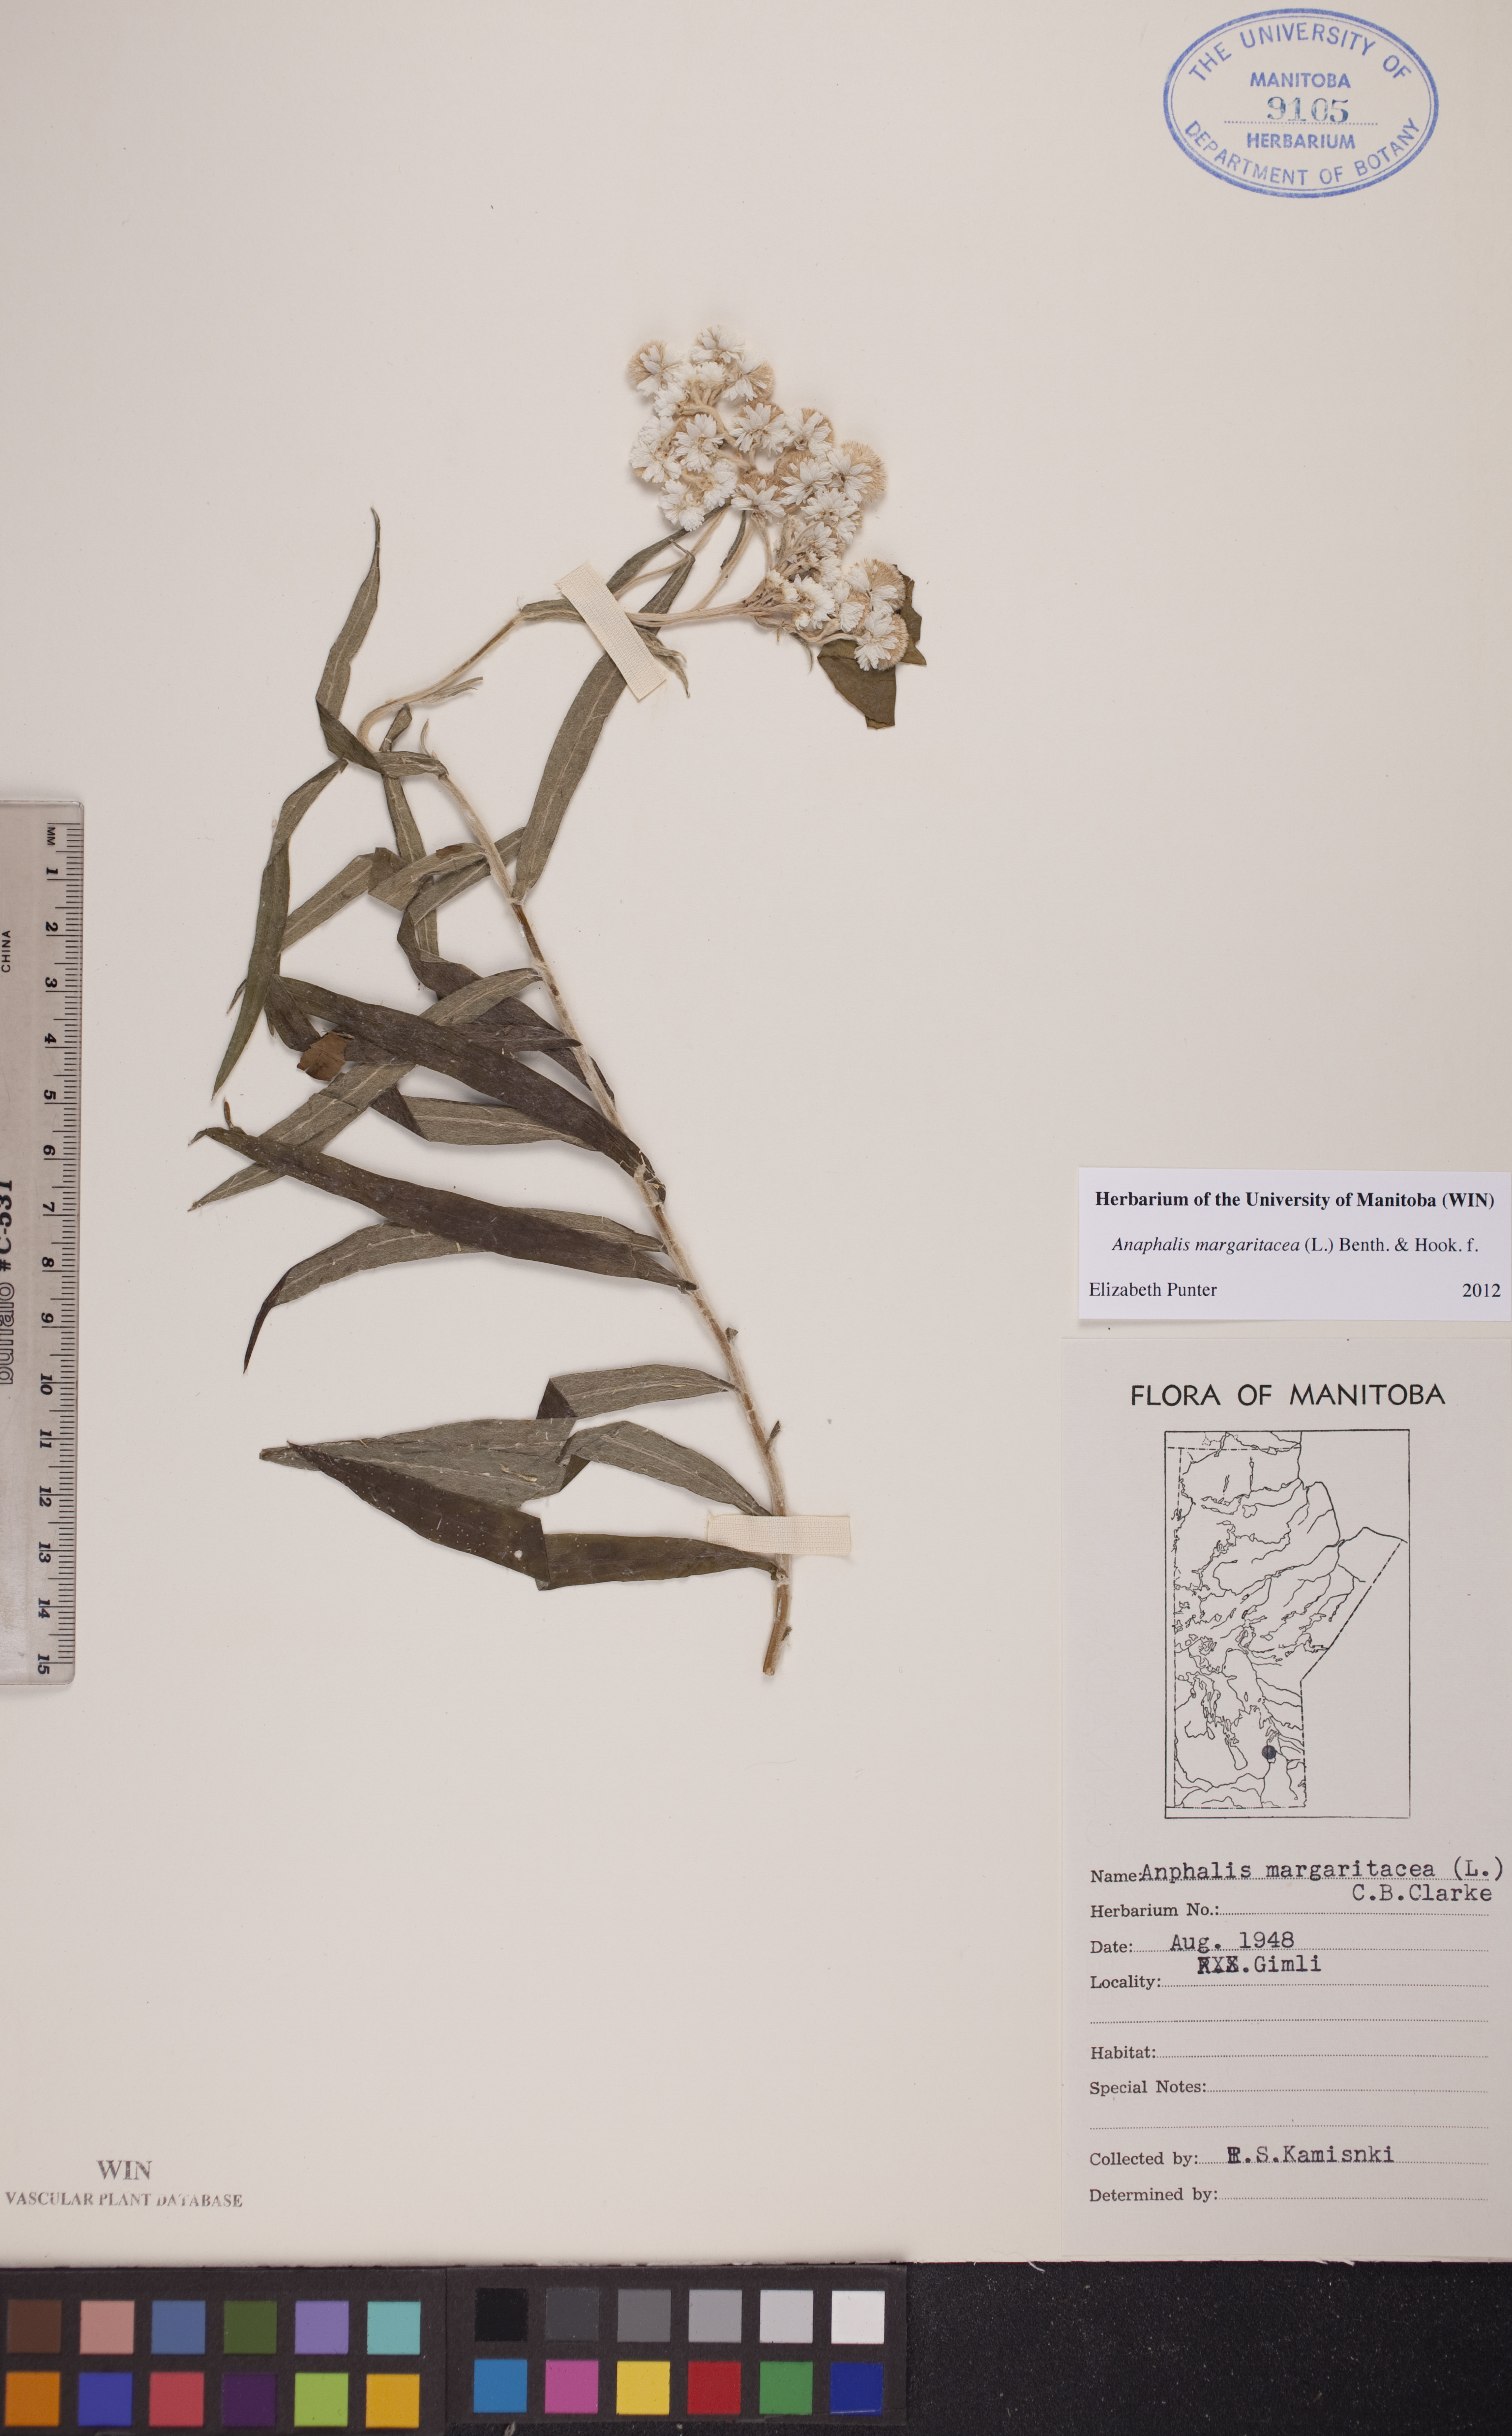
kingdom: Plantae
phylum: Tracheophyta
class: Magnoliopsida
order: Asterales
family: Asteraceae
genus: Anaphalis
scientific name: Anaphalis margaritacea
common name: Pearly everlasting
